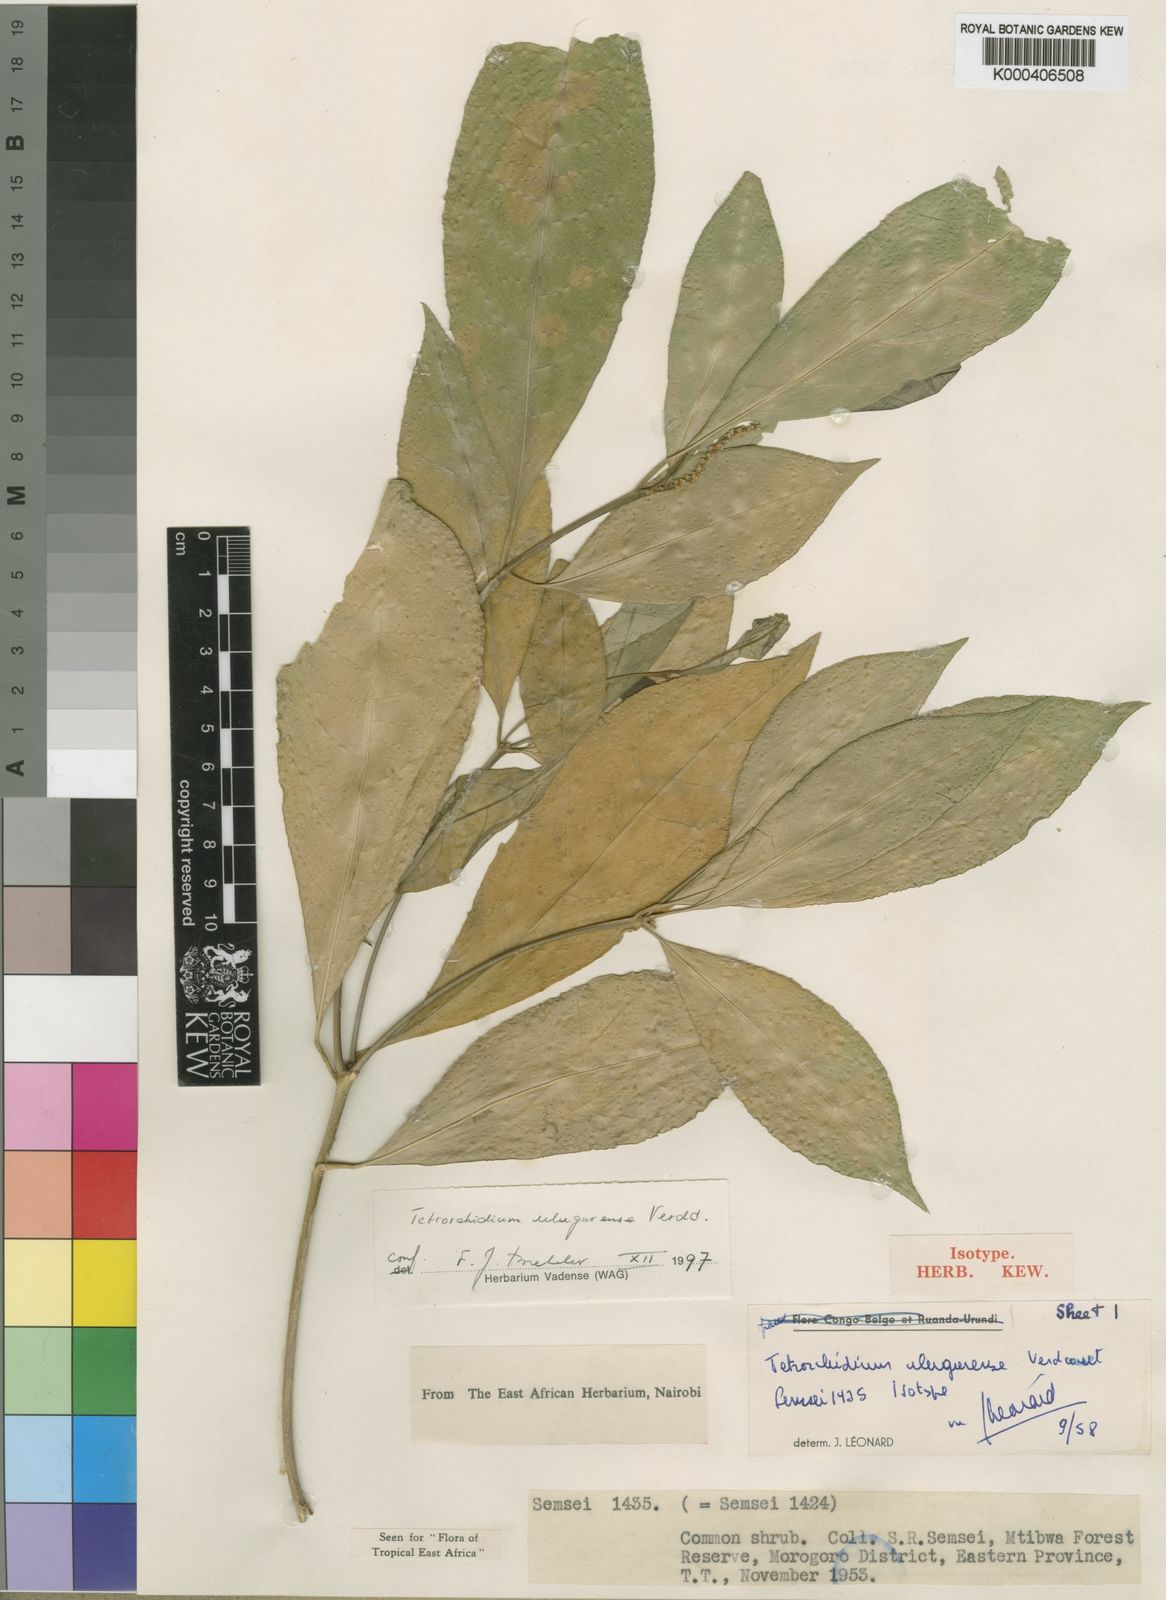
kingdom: Plantae
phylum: Tracheophyta
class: Magnoliopsida
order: Malpighiales
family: Euphorbiaceae
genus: Tetrorchidium
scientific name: Tetrorchidium
